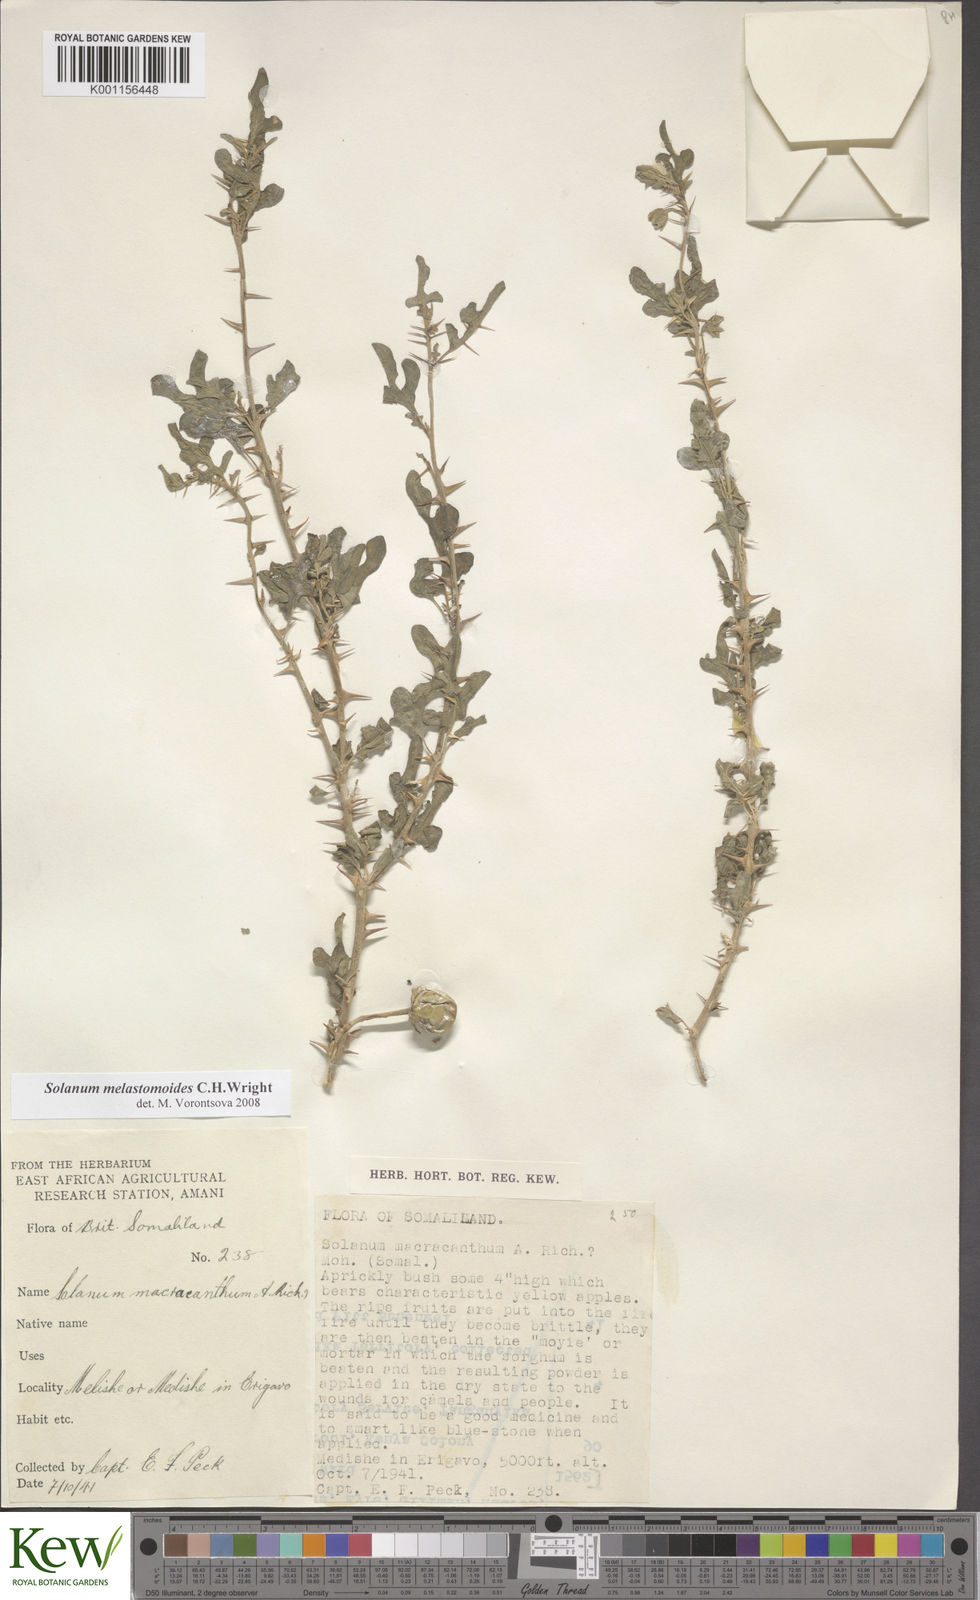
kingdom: Plantae
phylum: Tracheophyta
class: Magnoliopsida
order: Solanales
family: Solanaceae
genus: Solanum
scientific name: Solanum melastomoides
